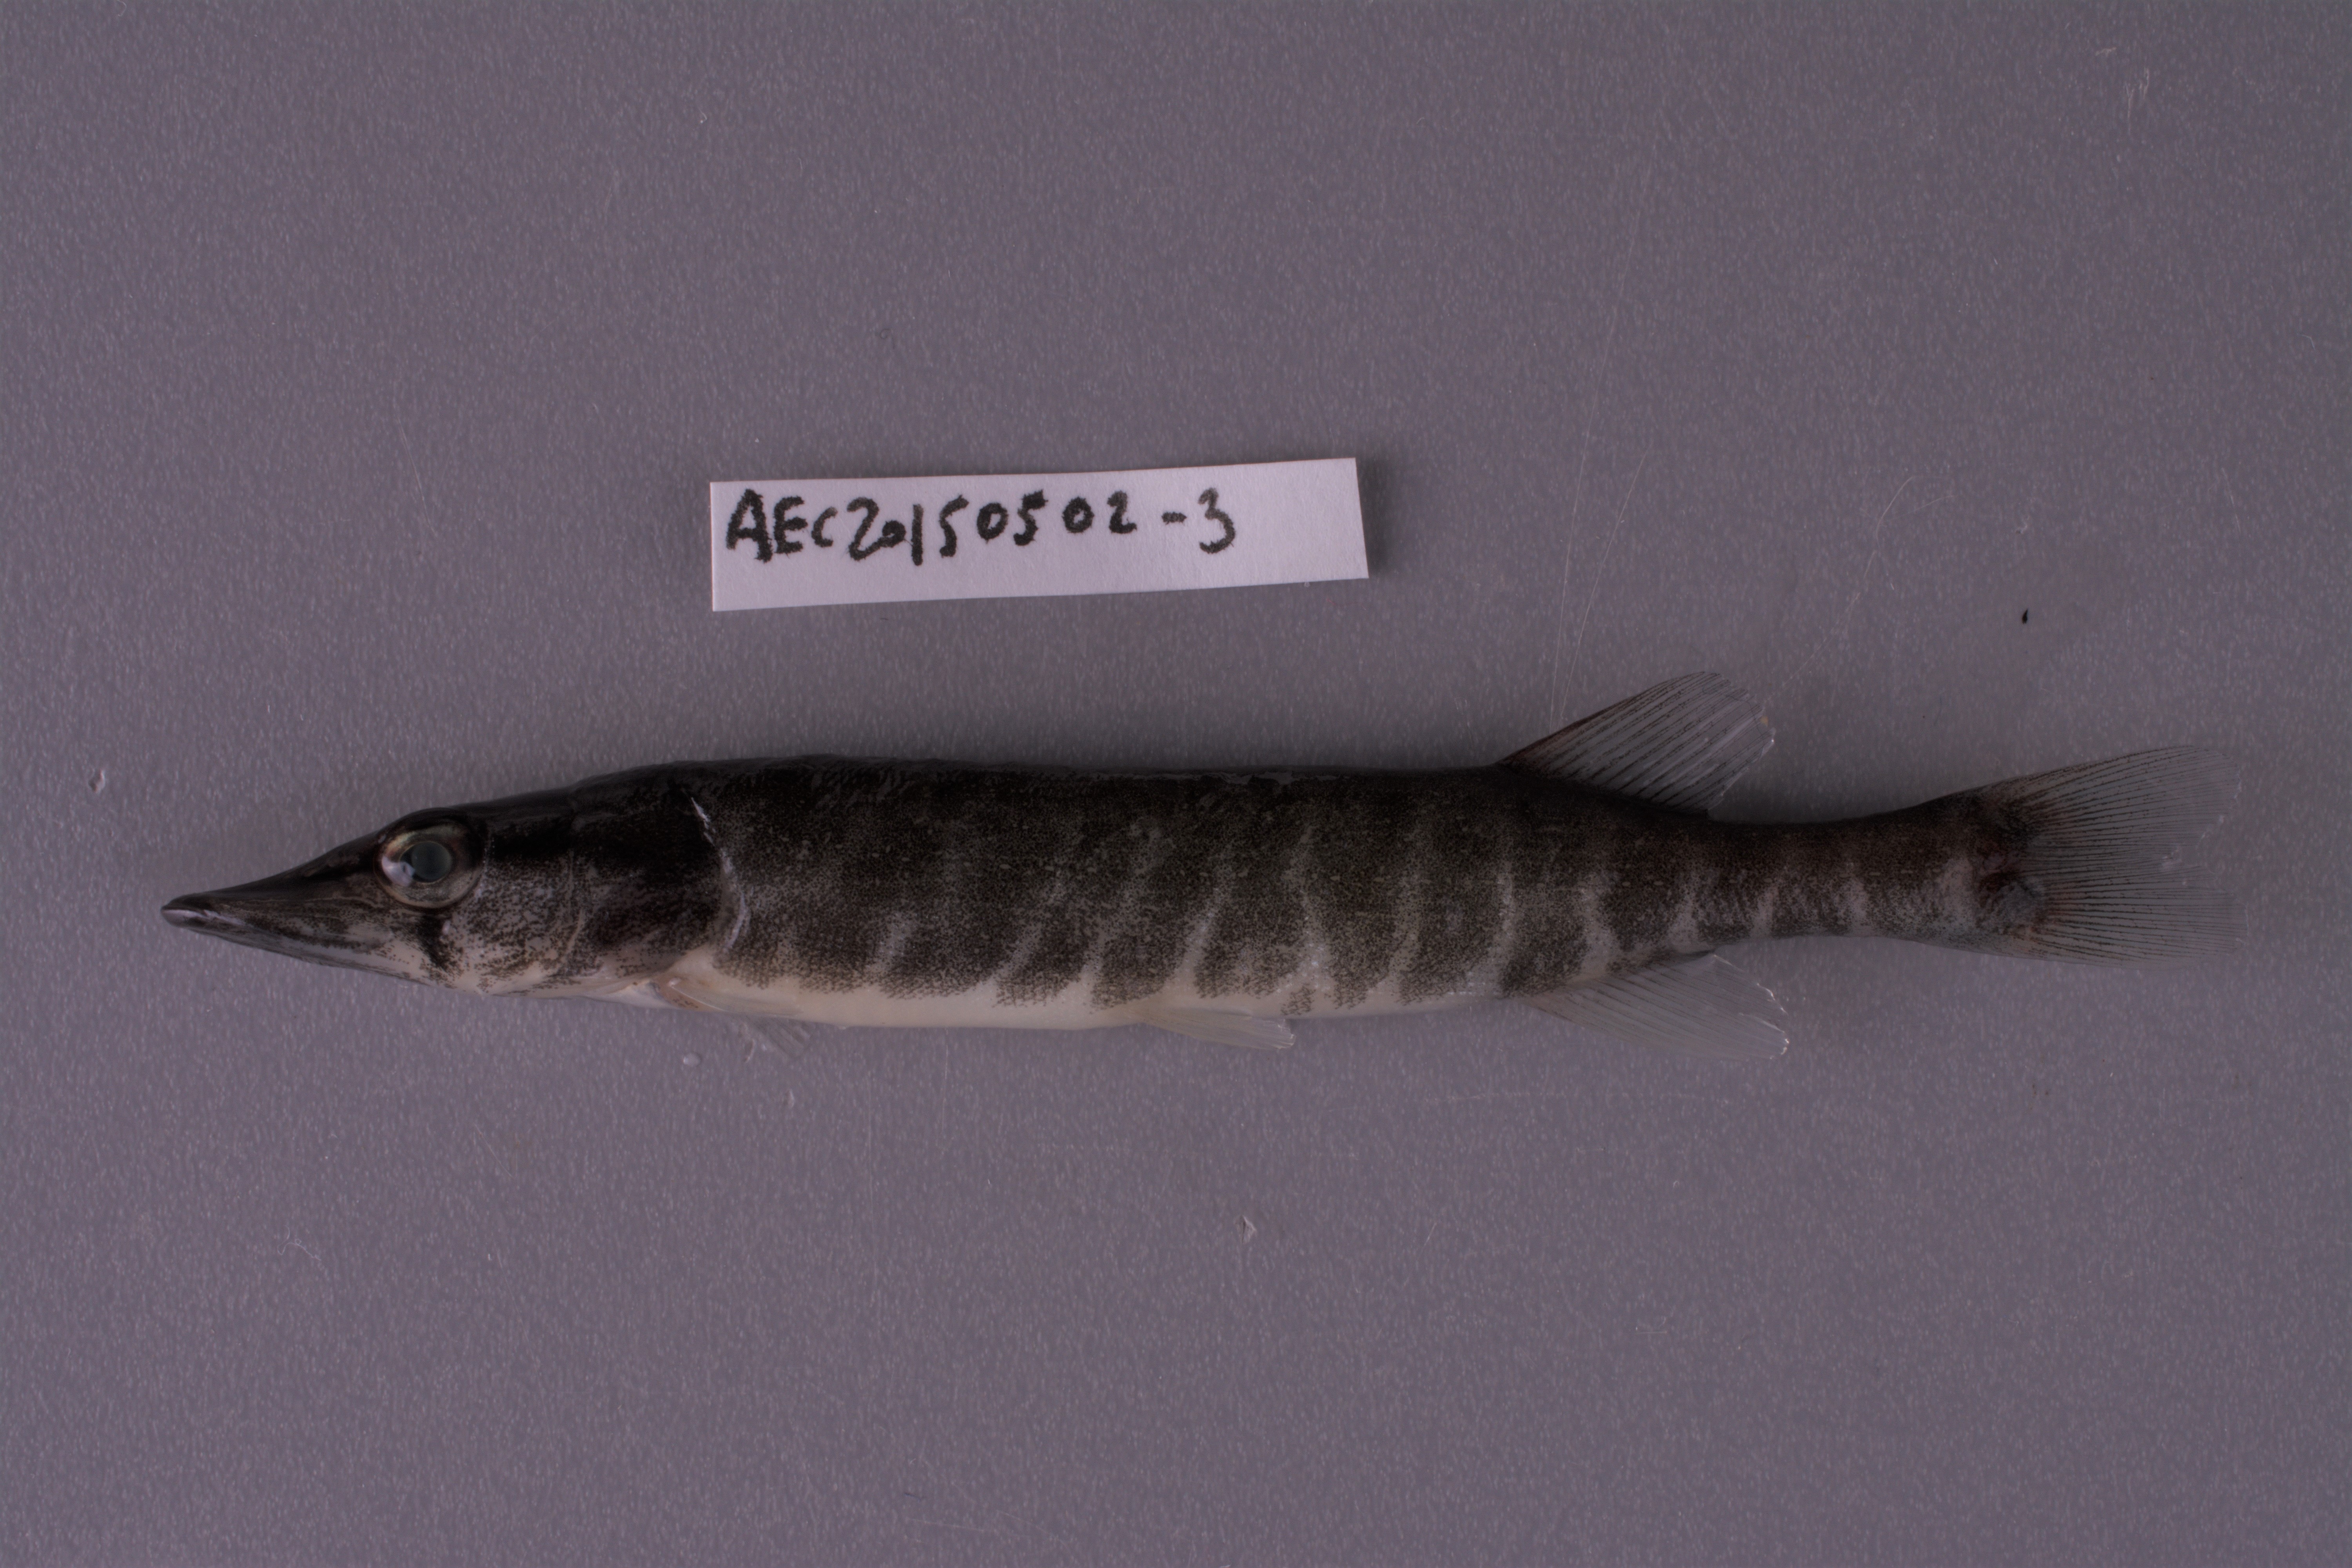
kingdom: Animalia
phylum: Chordata
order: Esociformes
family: Esocidae
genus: Esox
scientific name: Esox americanus
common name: Redfin pickerel
